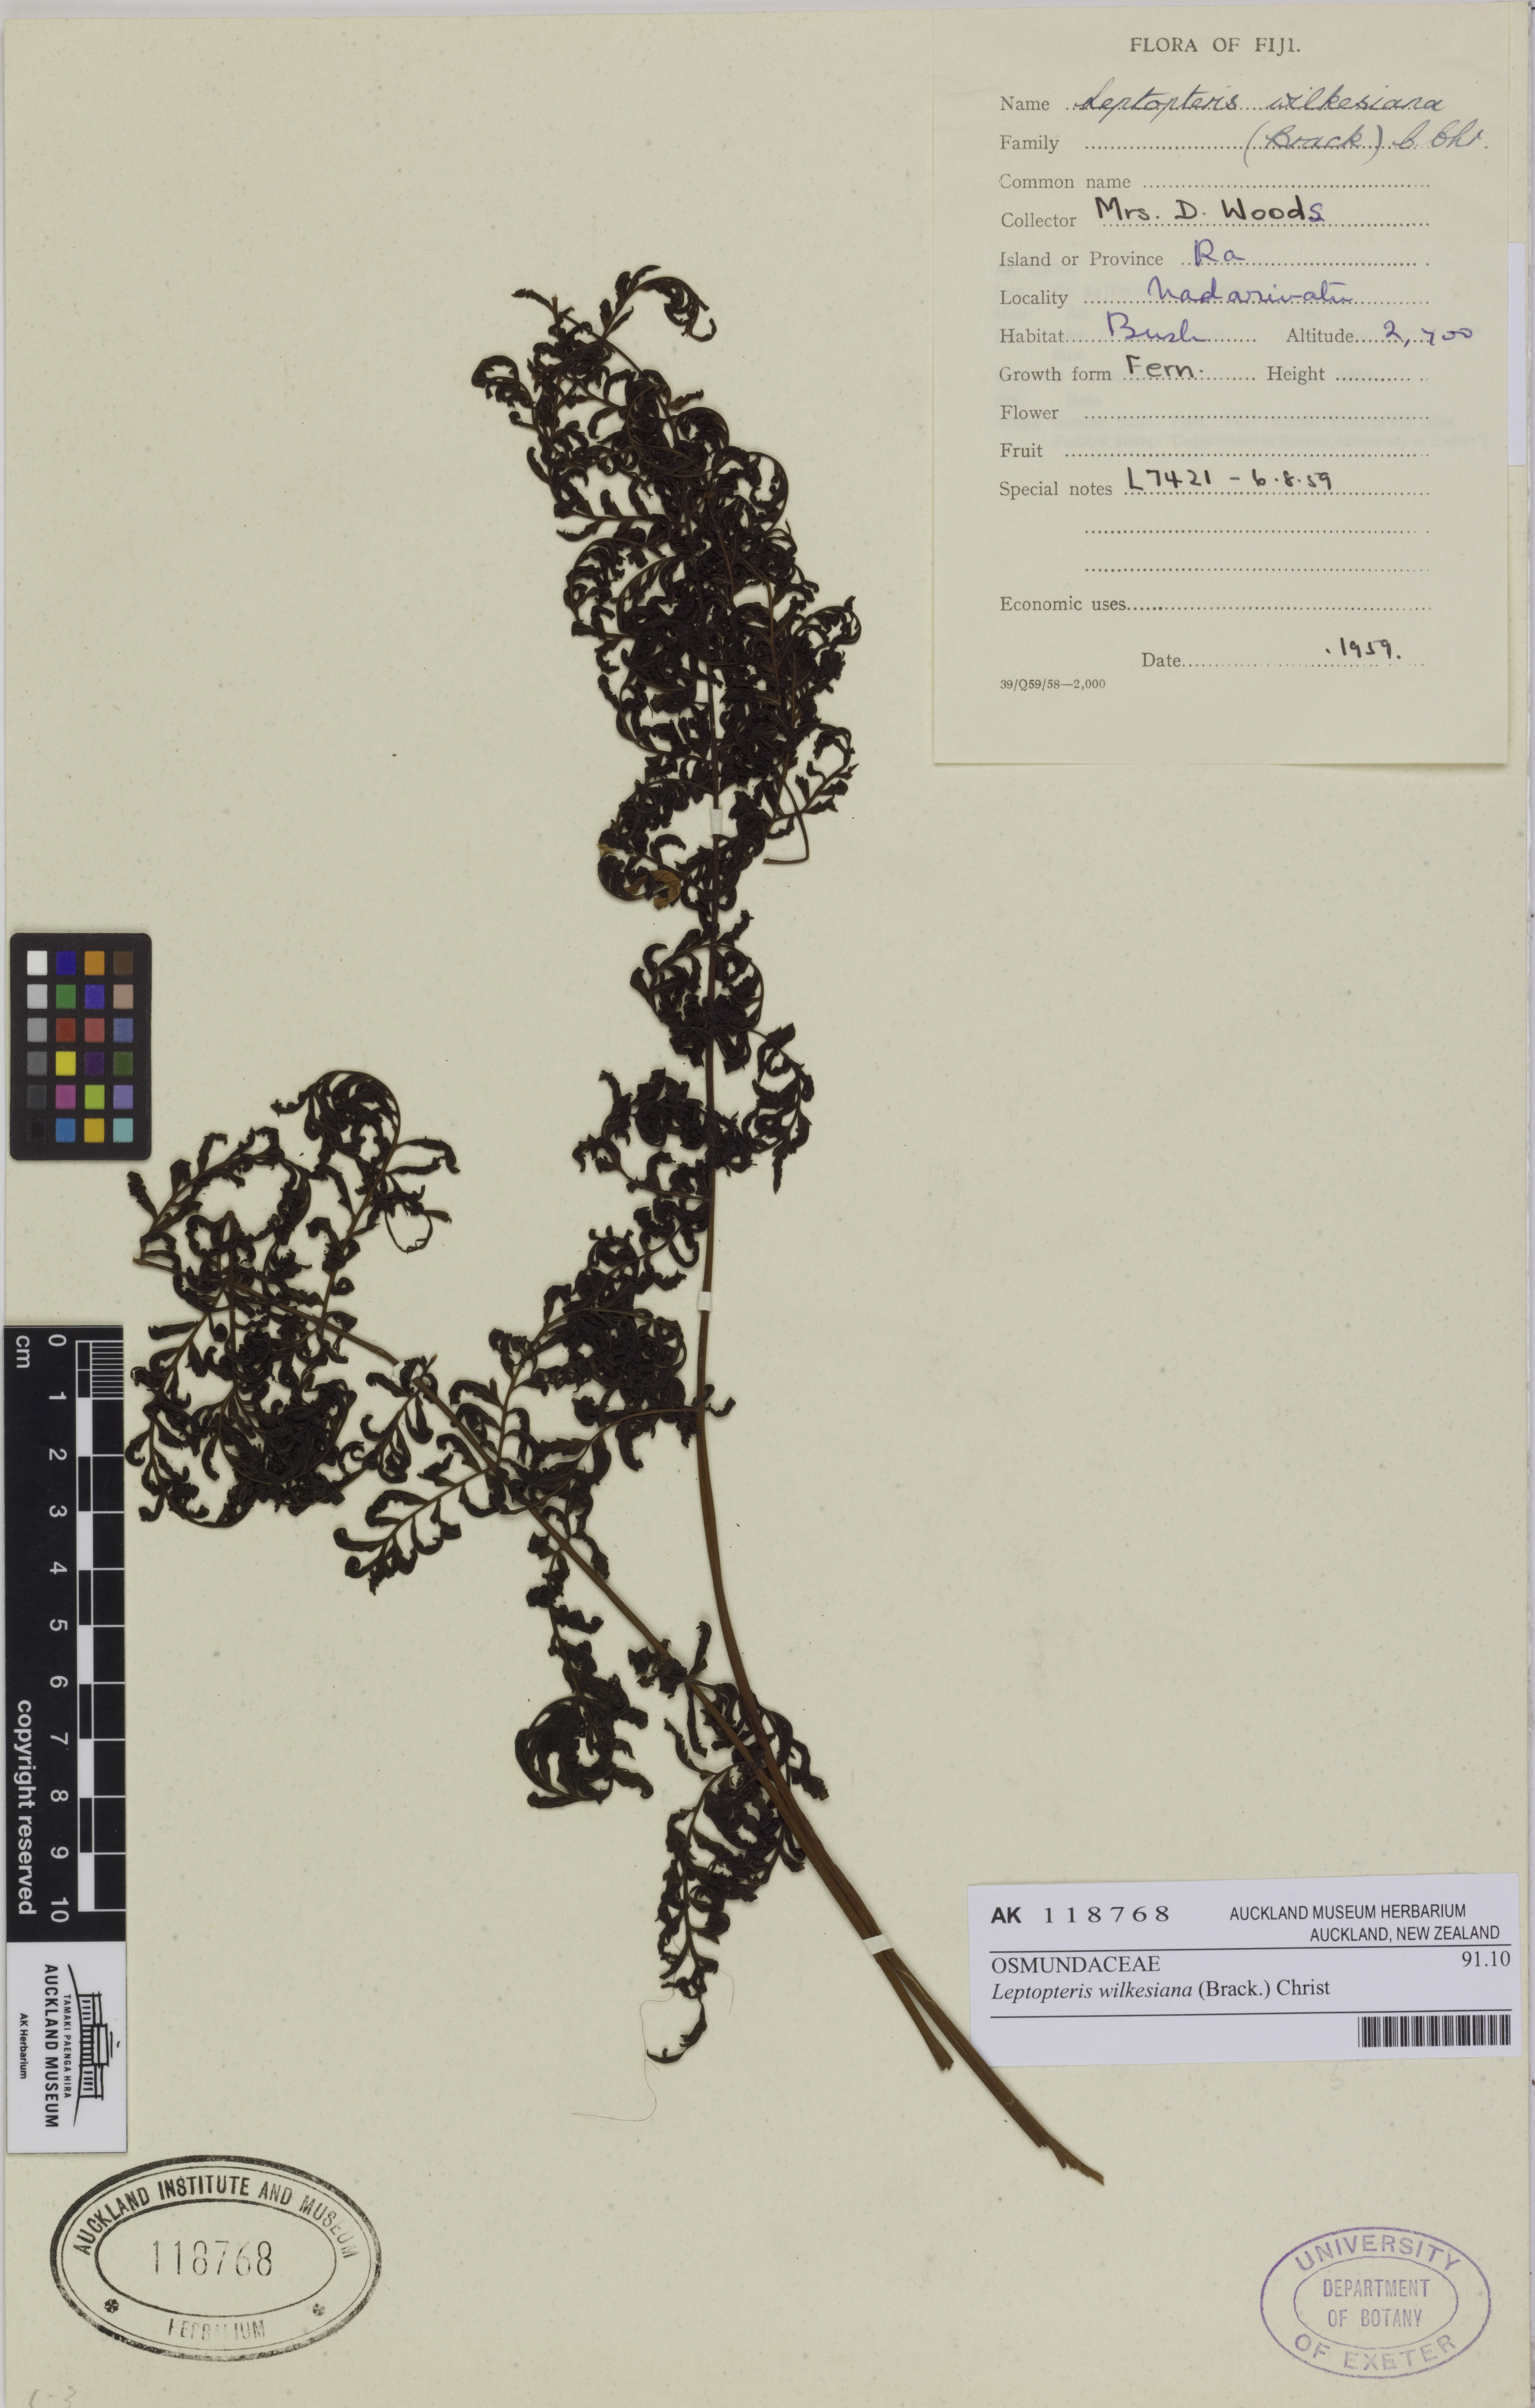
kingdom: Plantae
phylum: Tracheophyta
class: Polypodiopsida
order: Osmundales
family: Osmundaceae
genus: Leptopteris
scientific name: Leptopteris wilkesiana
